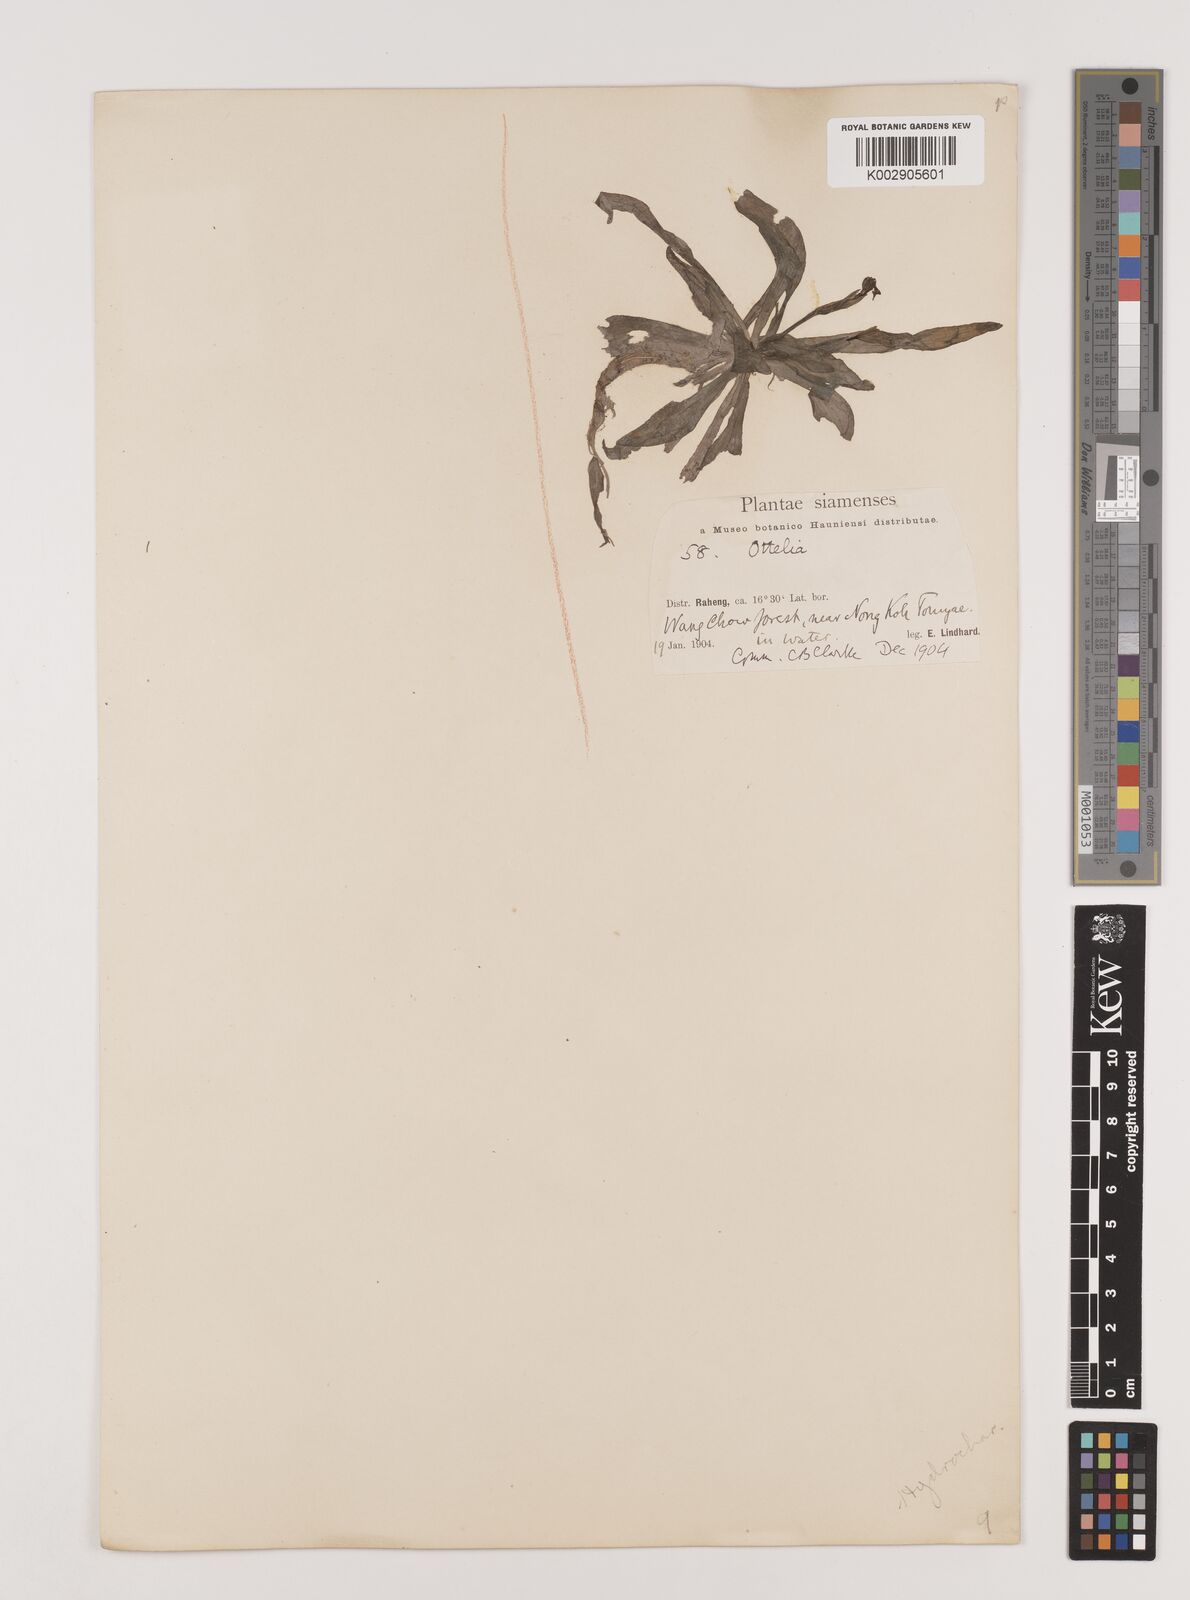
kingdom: Plantae
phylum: Tracheophyta
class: Liliopsida
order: Alismatales
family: Hydrocharitaceae
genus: Ottelia
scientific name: Ottelia alismoides
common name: Duck-lettuce
